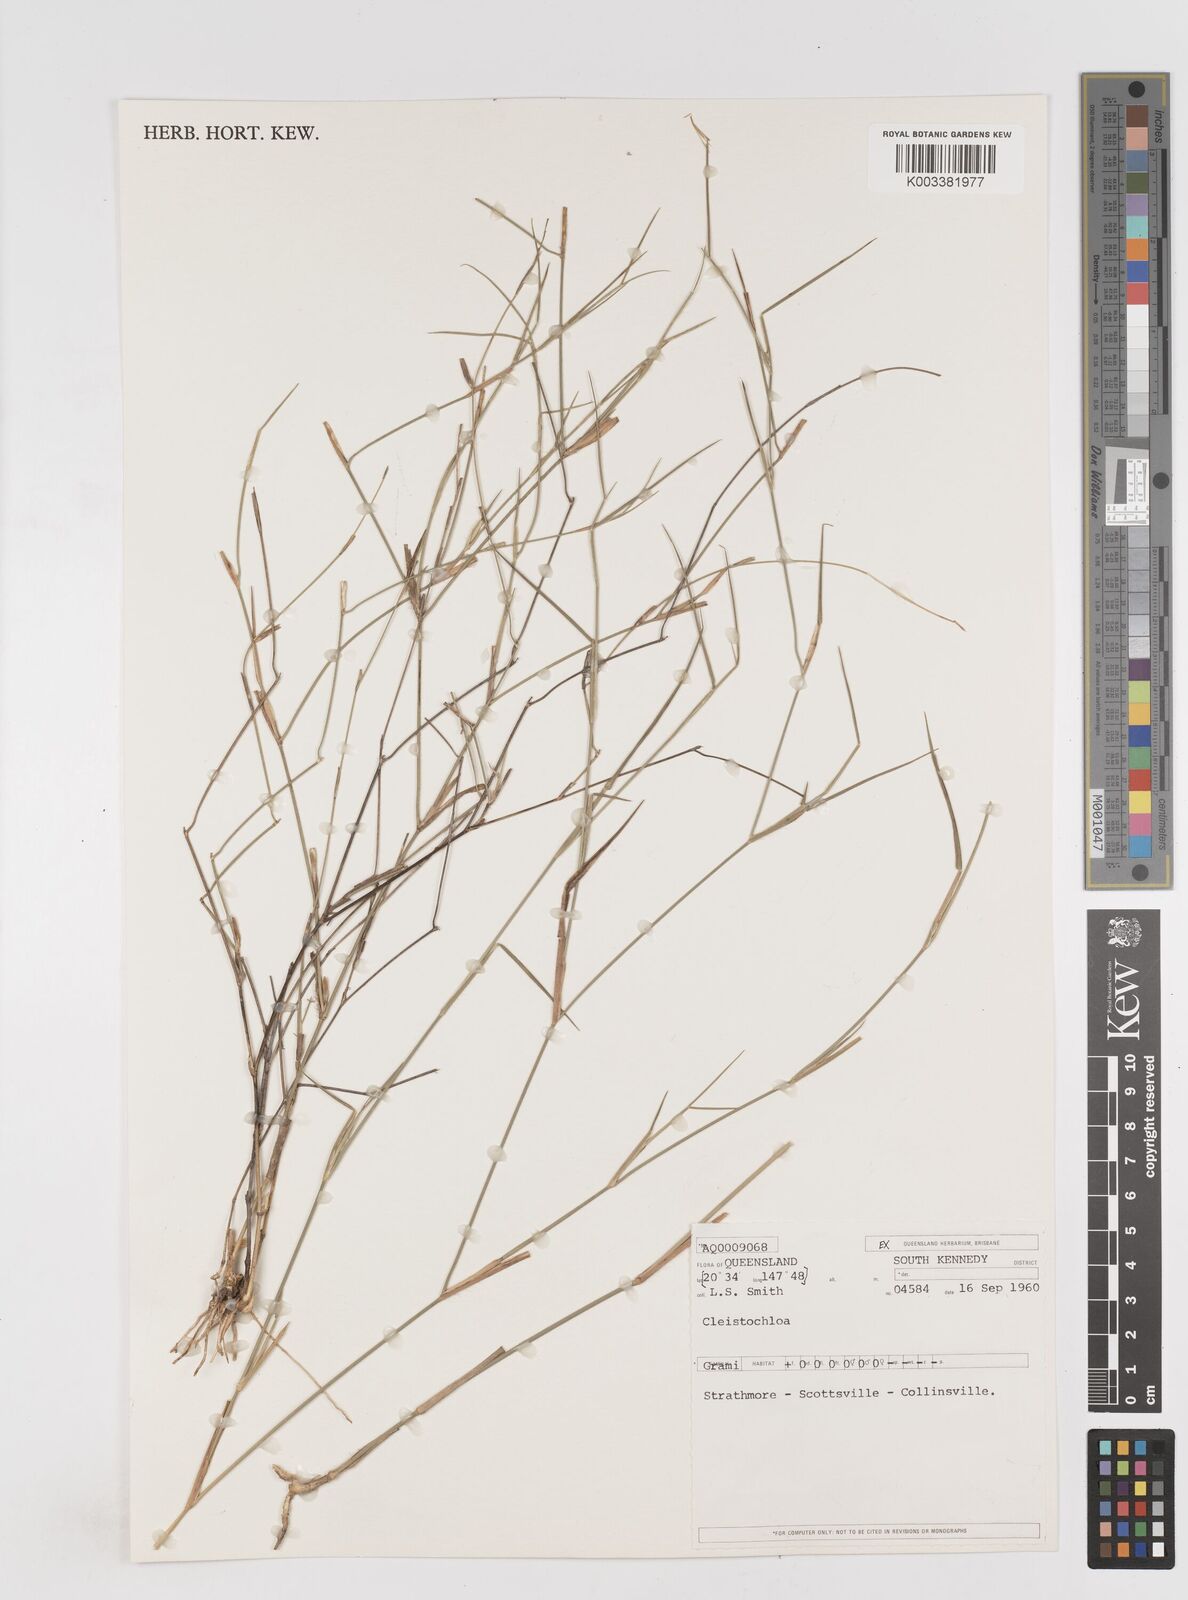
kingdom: Plantae
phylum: Tracheophyta
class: Liliopsida
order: Poales
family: Poaceae
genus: Cleistochloa
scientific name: Cleistochloa
